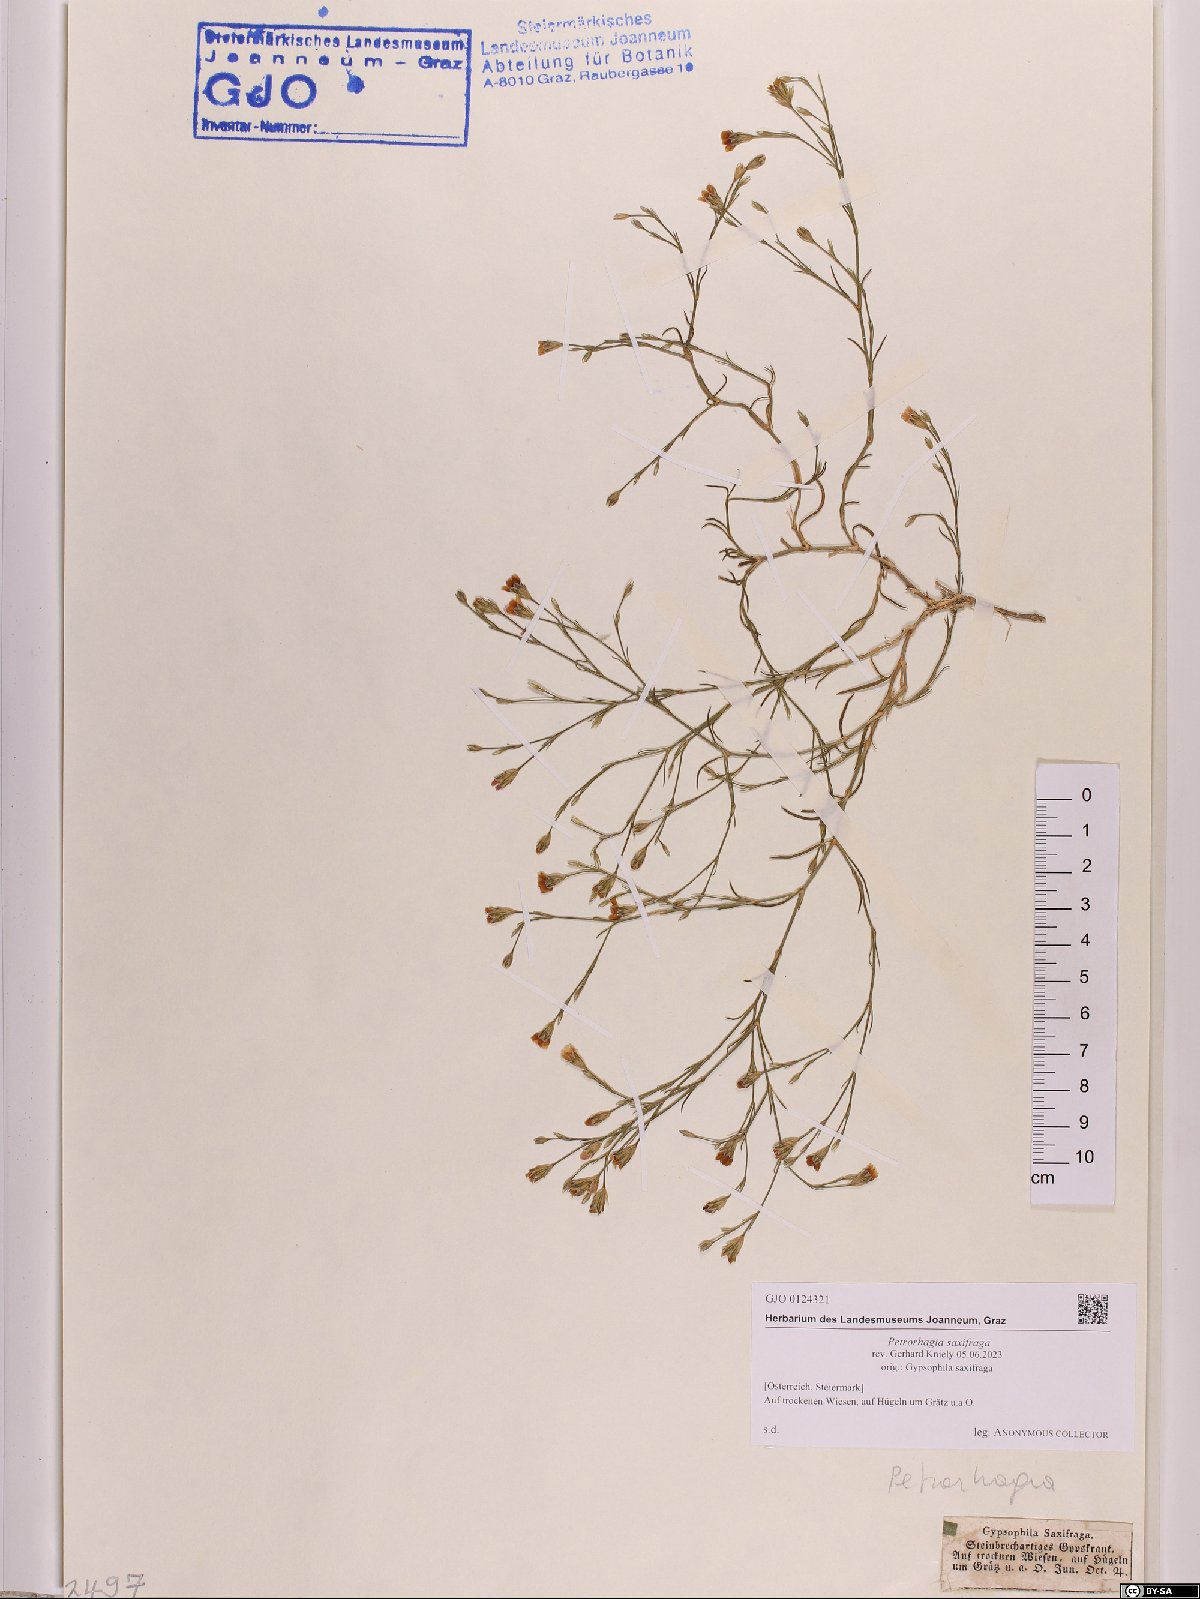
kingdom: Plantae
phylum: Tracheophyta
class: Magnoliopsida
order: Caryophyllales
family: Caryophyllaceae
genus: Petrorhagia
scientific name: Petrorhagia saxifraga
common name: Tunicflower
